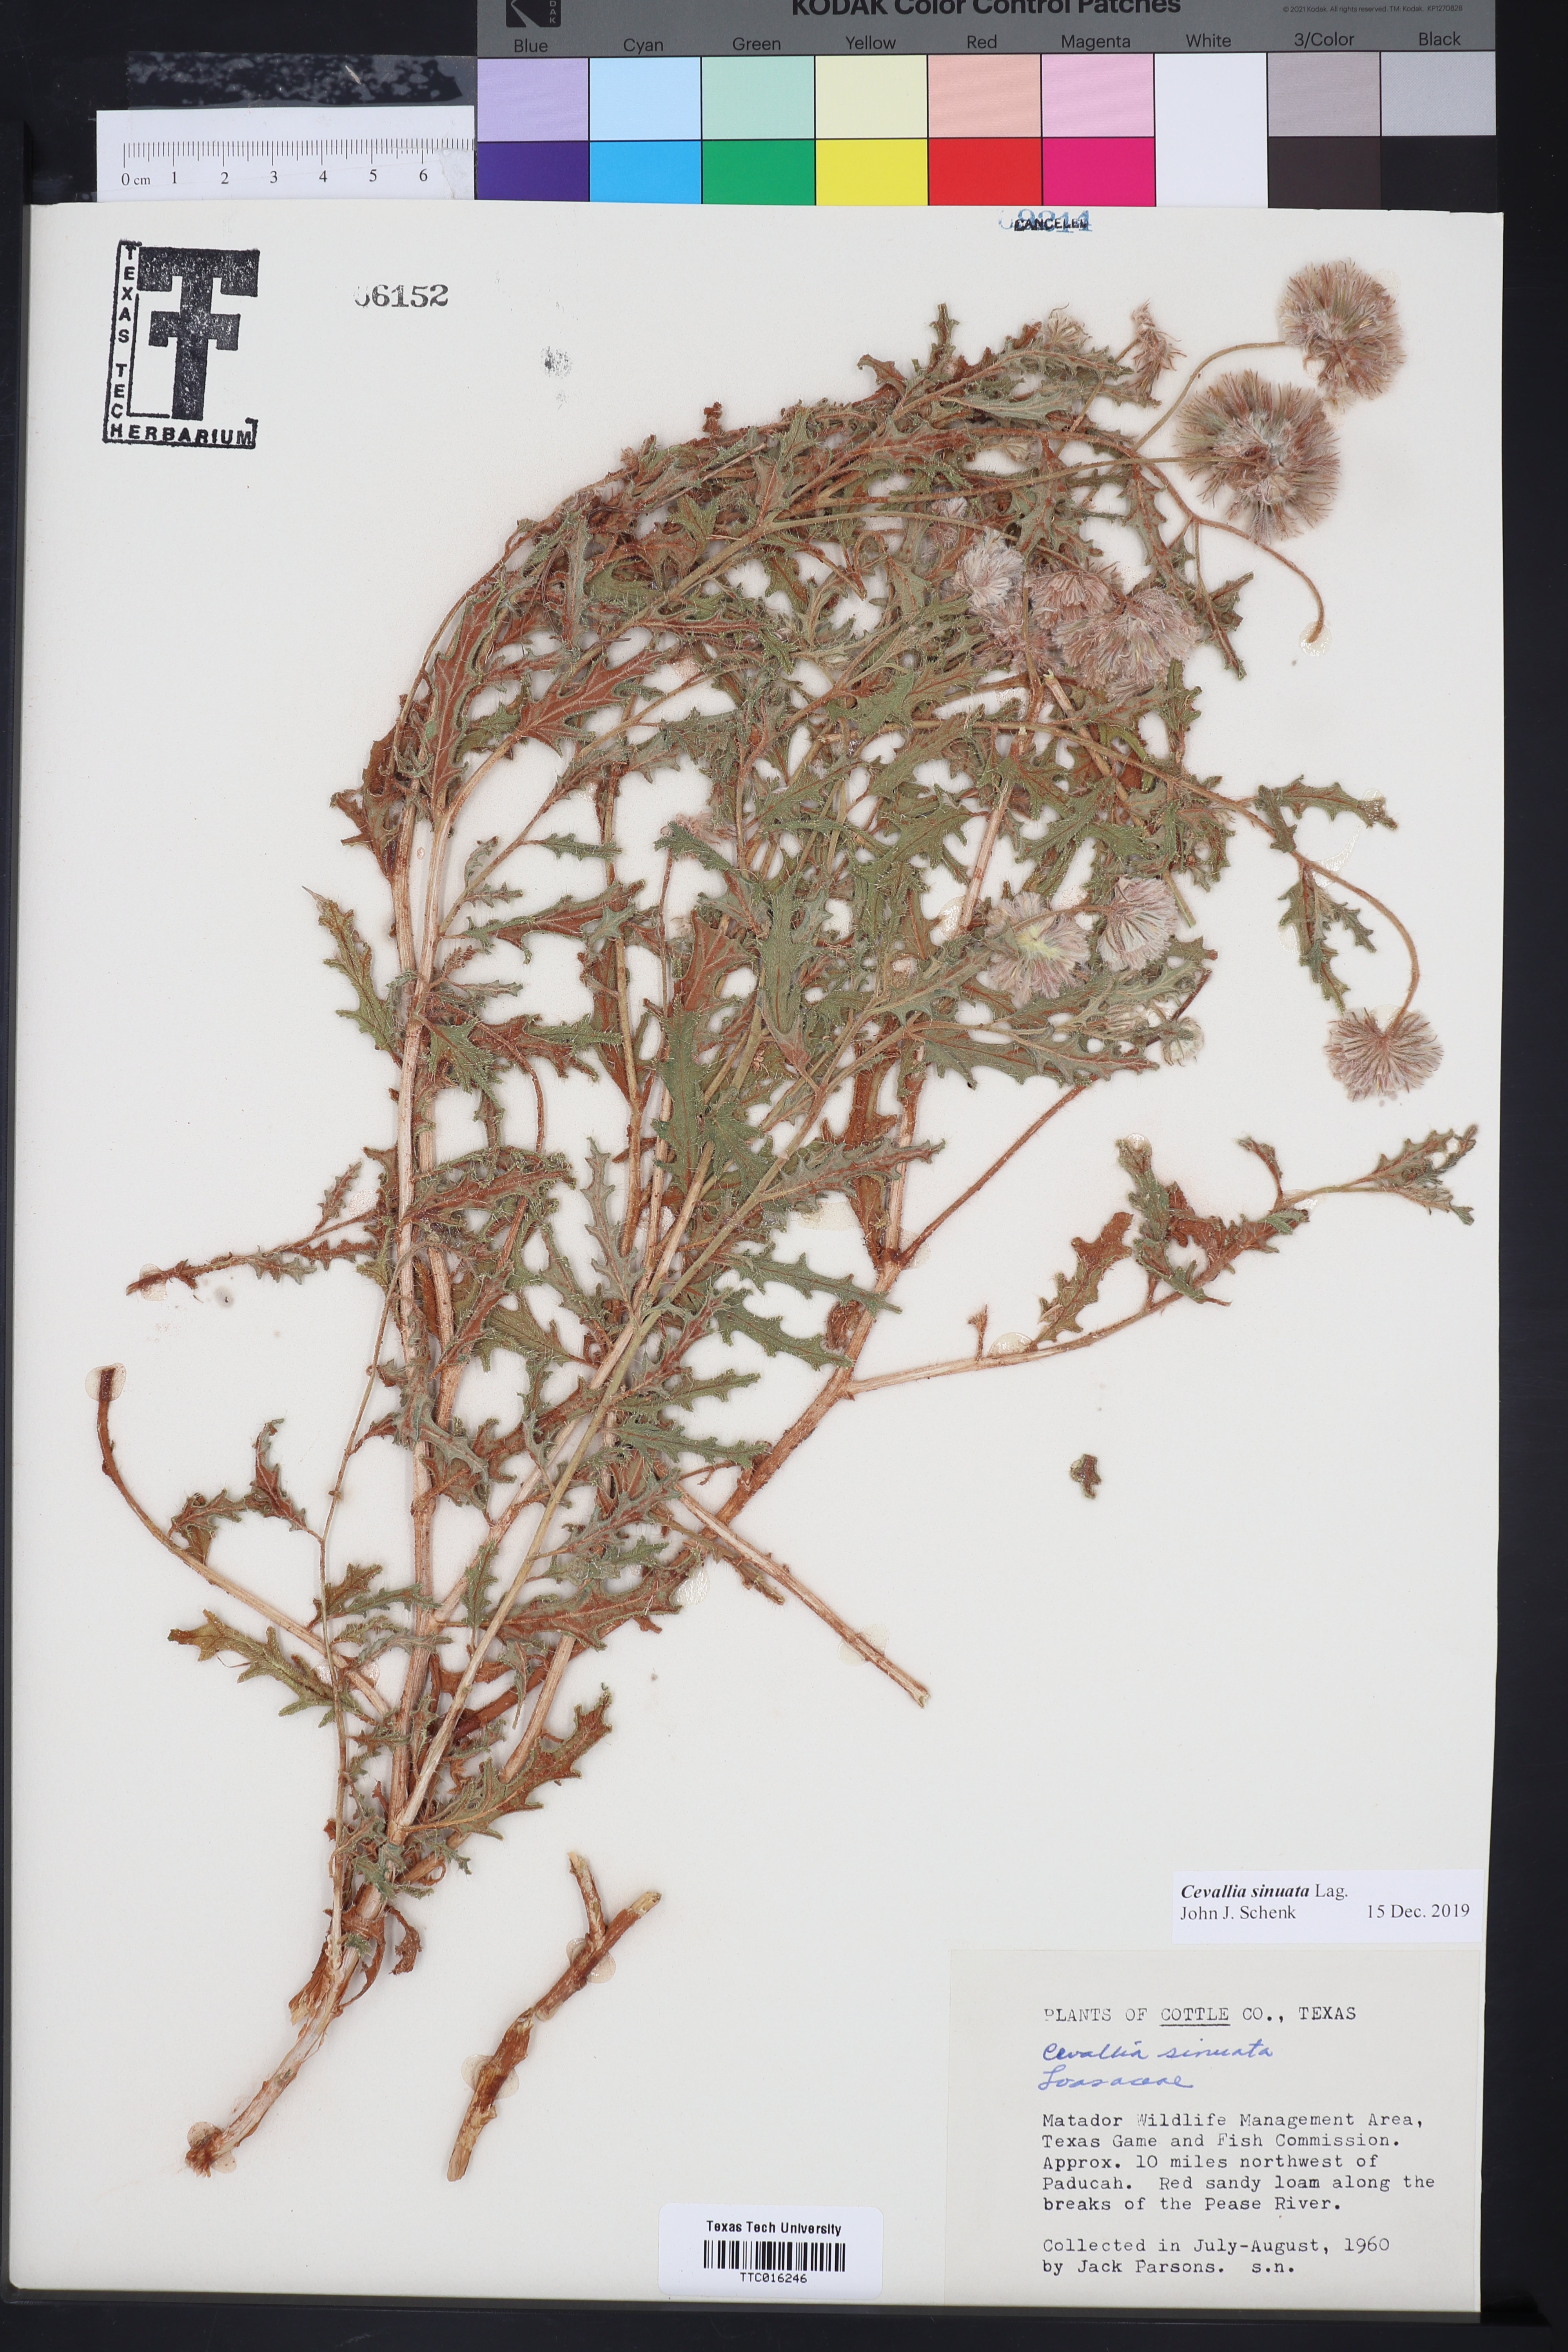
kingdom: Plantae
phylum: Tracheophyta
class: Magnoliopsida
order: Cornales
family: Loasaceae
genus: Cevallia
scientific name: Cevallia sinuata
